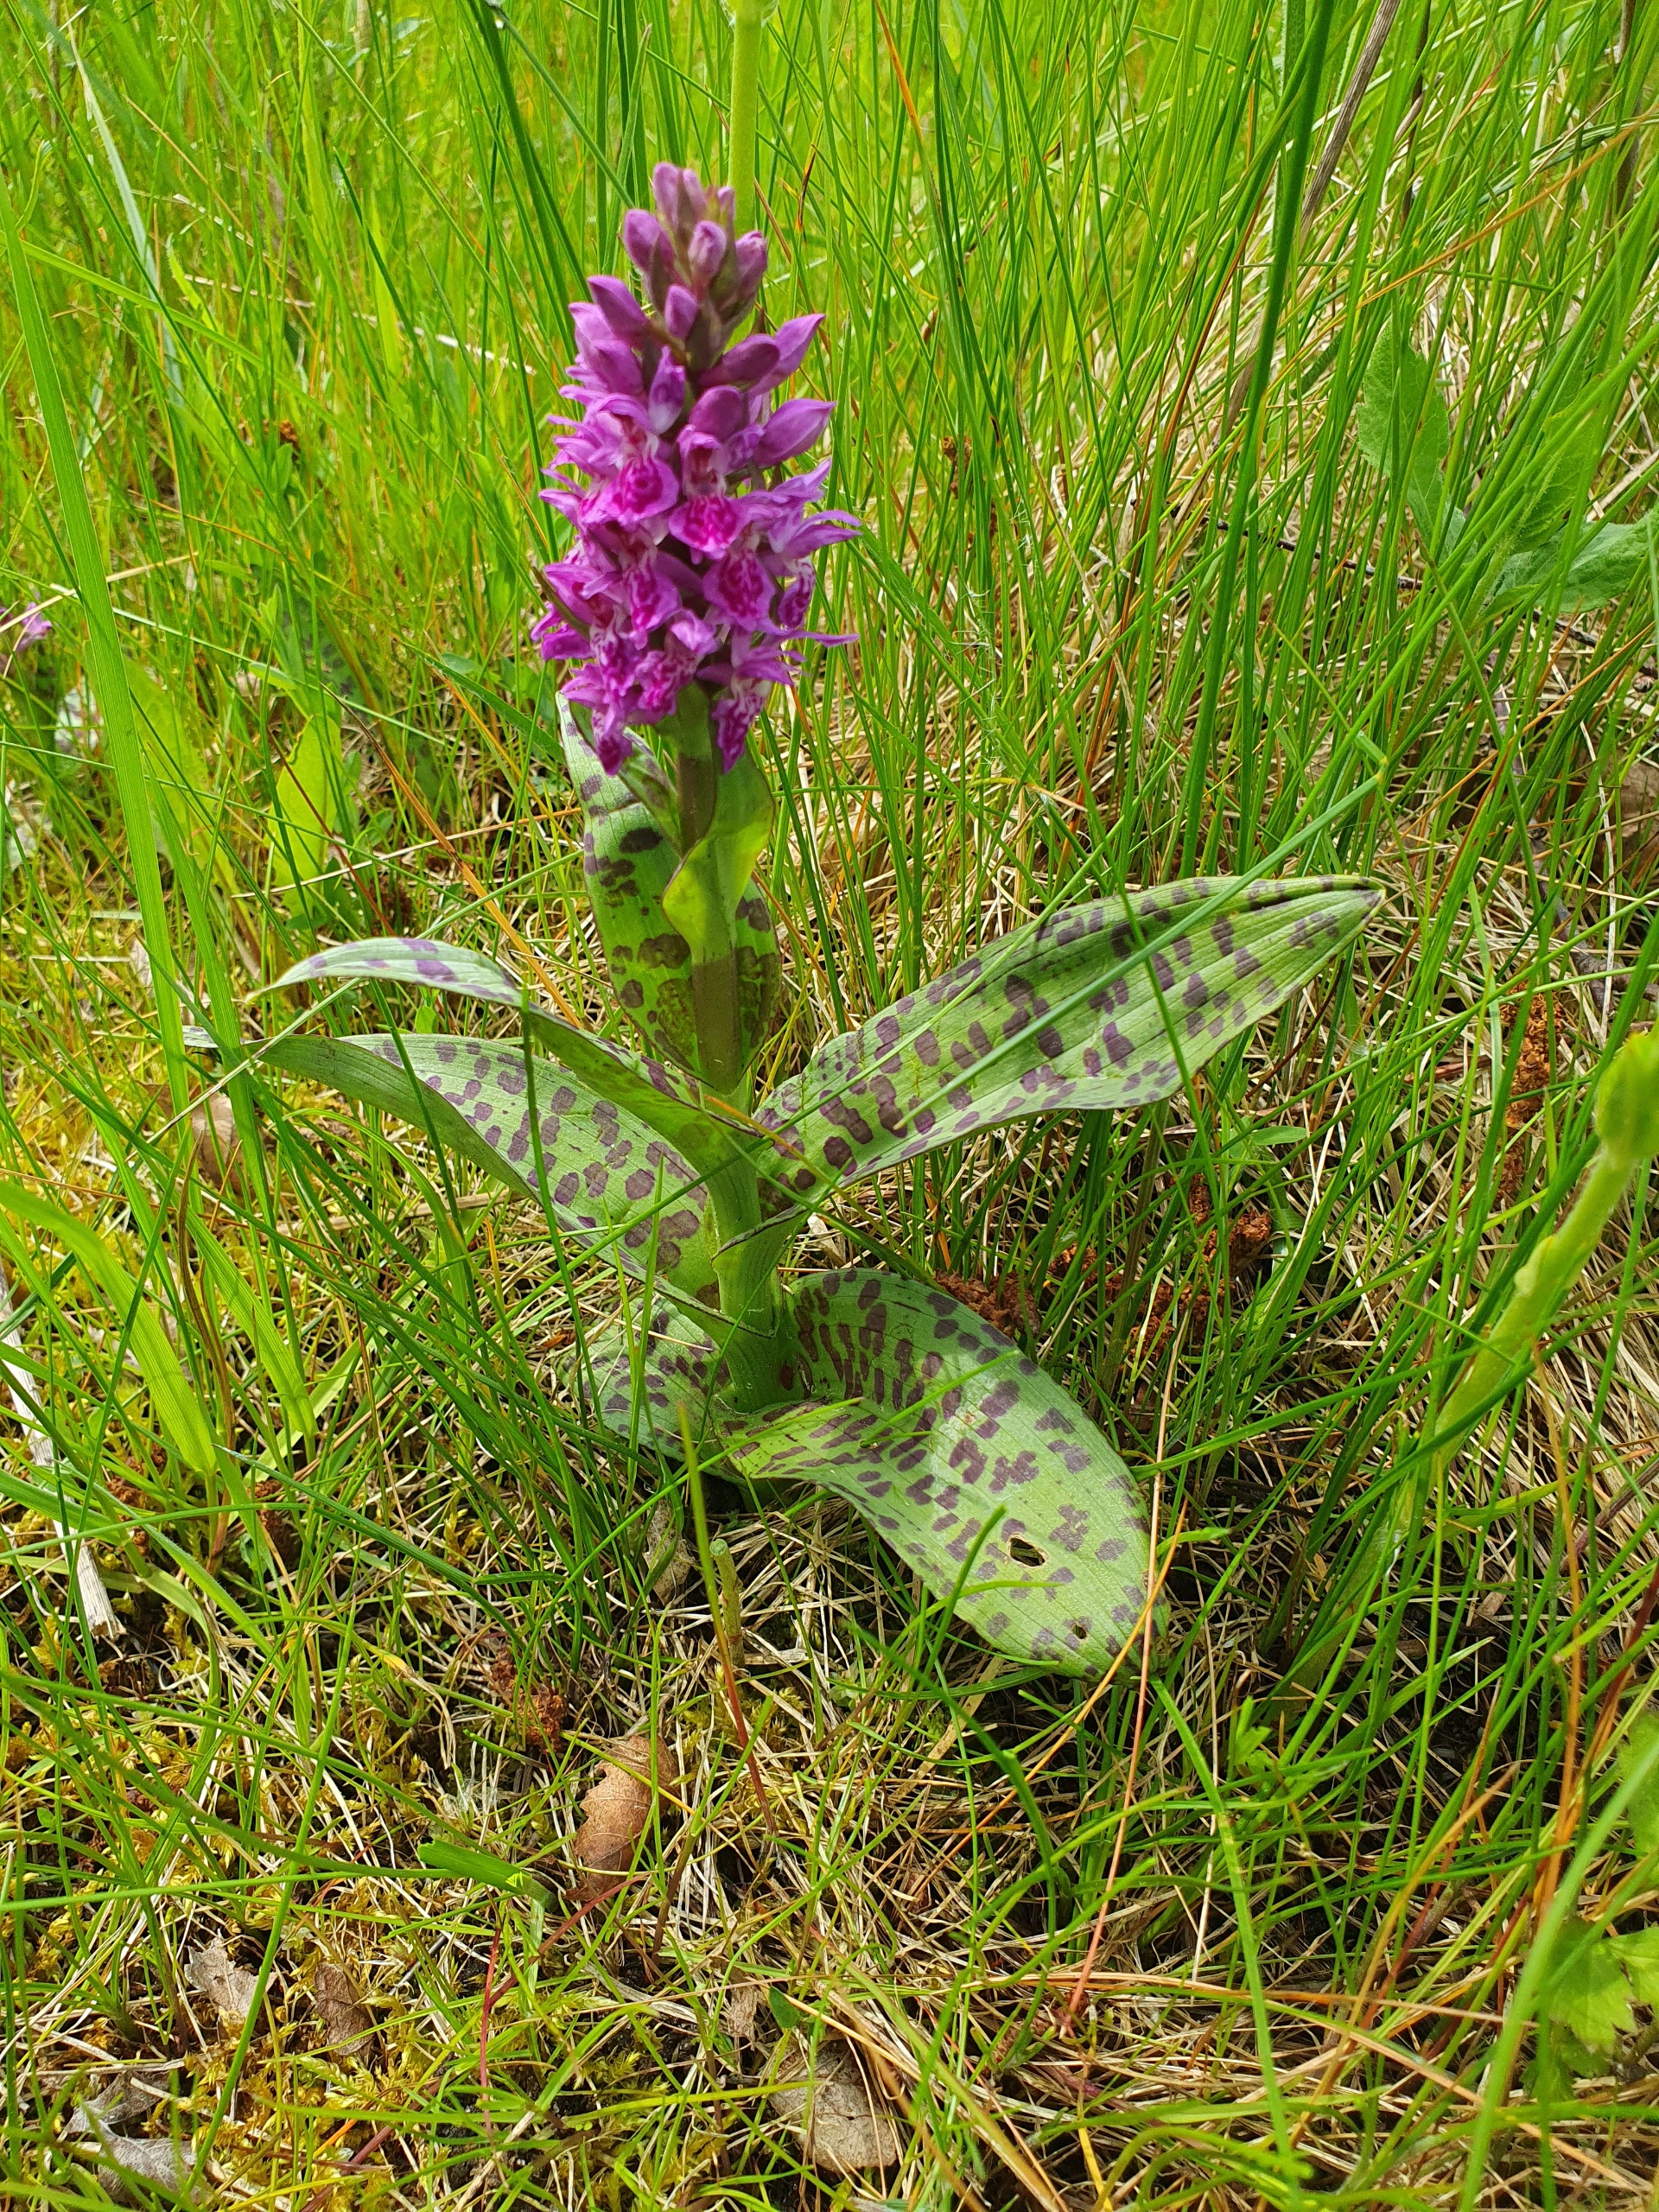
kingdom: Plantae
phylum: Tracheophyta
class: Liliopsida
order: Asparagales
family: Orchidaceae
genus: Dactylorhiza
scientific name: Dactylorhiza majalis
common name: Maj-gøgeurt
